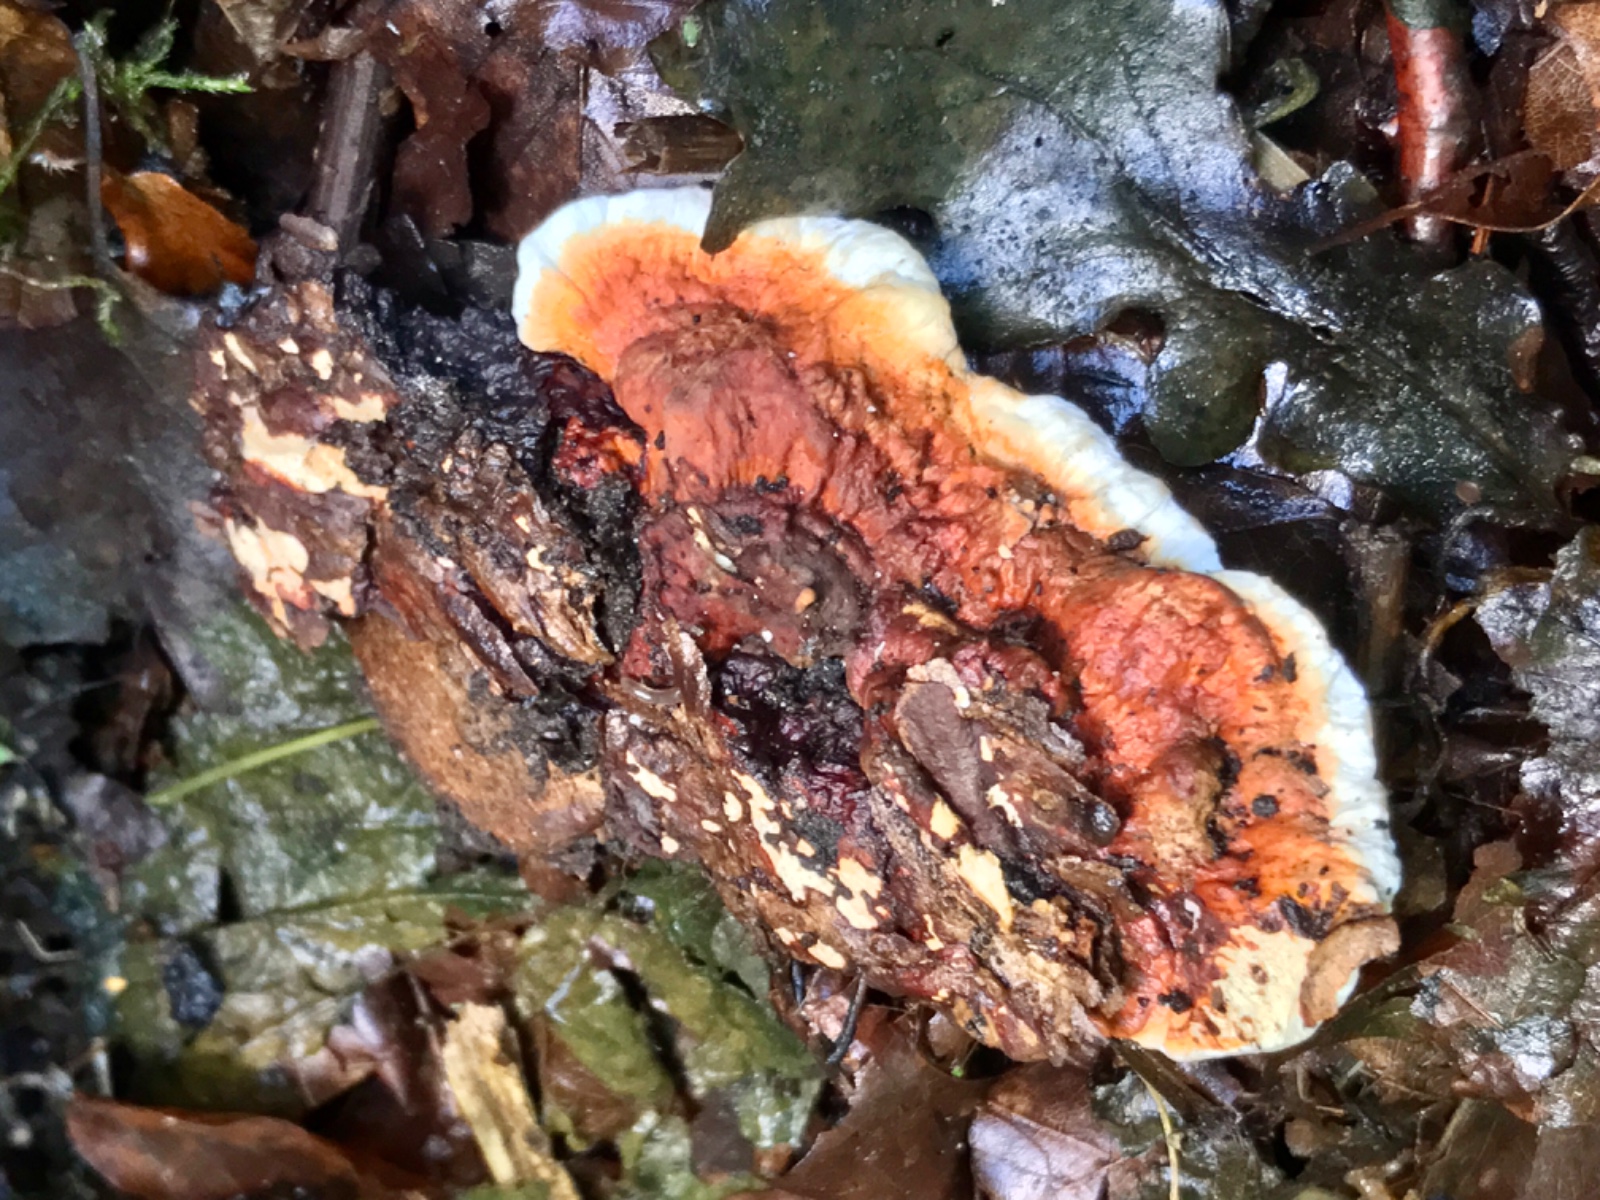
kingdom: Fungi
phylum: Basidiomycota
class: Agaricomycetes
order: Russulales
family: Bondarzewiaceae
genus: Heterobasidion
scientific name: Heterobasidion annosum
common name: almindelig rodfordærver
